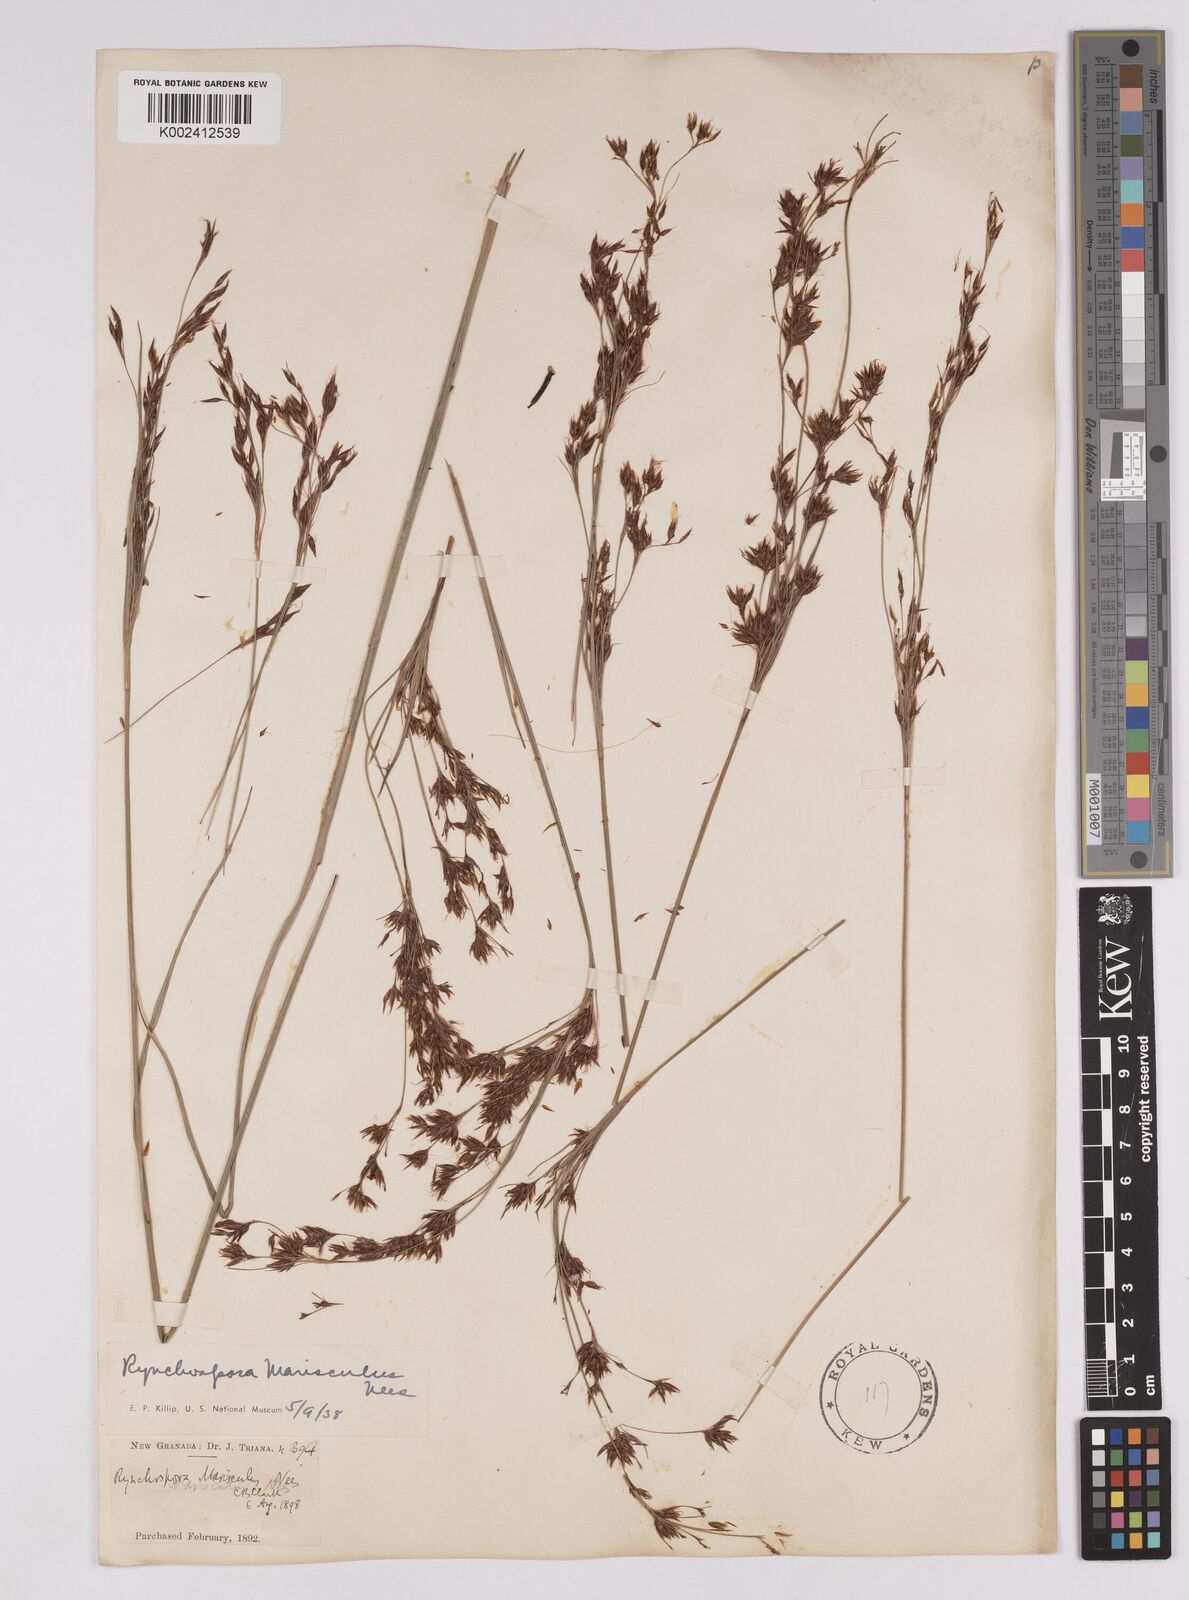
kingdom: Plantae
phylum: Tracheophyta
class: Liliopsida
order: Poales
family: Cyperaceae
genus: Rhynchospora
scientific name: Rhynchospora marisculus
